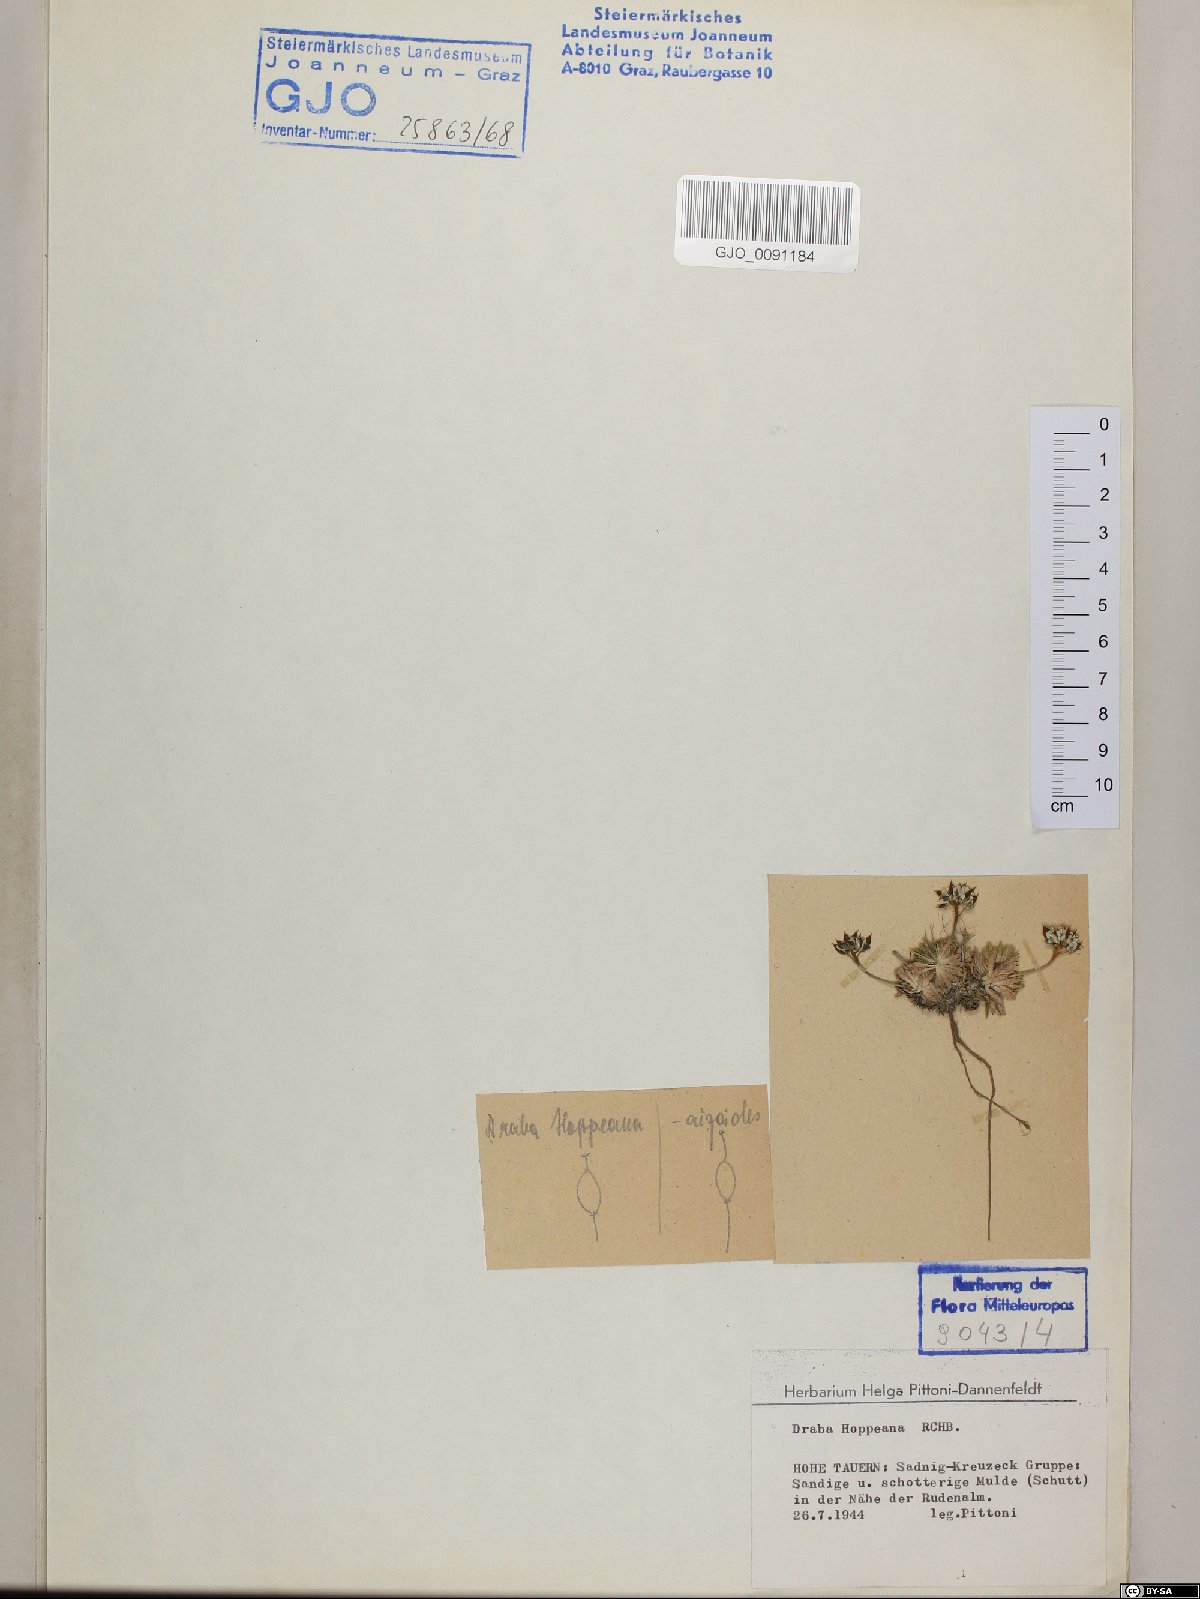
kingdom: Plantae
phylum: Tracheophyta
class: Magnoliopsida
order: Brassicales
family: Brassicaceae
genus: Draba
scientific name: Draba hoppeana
